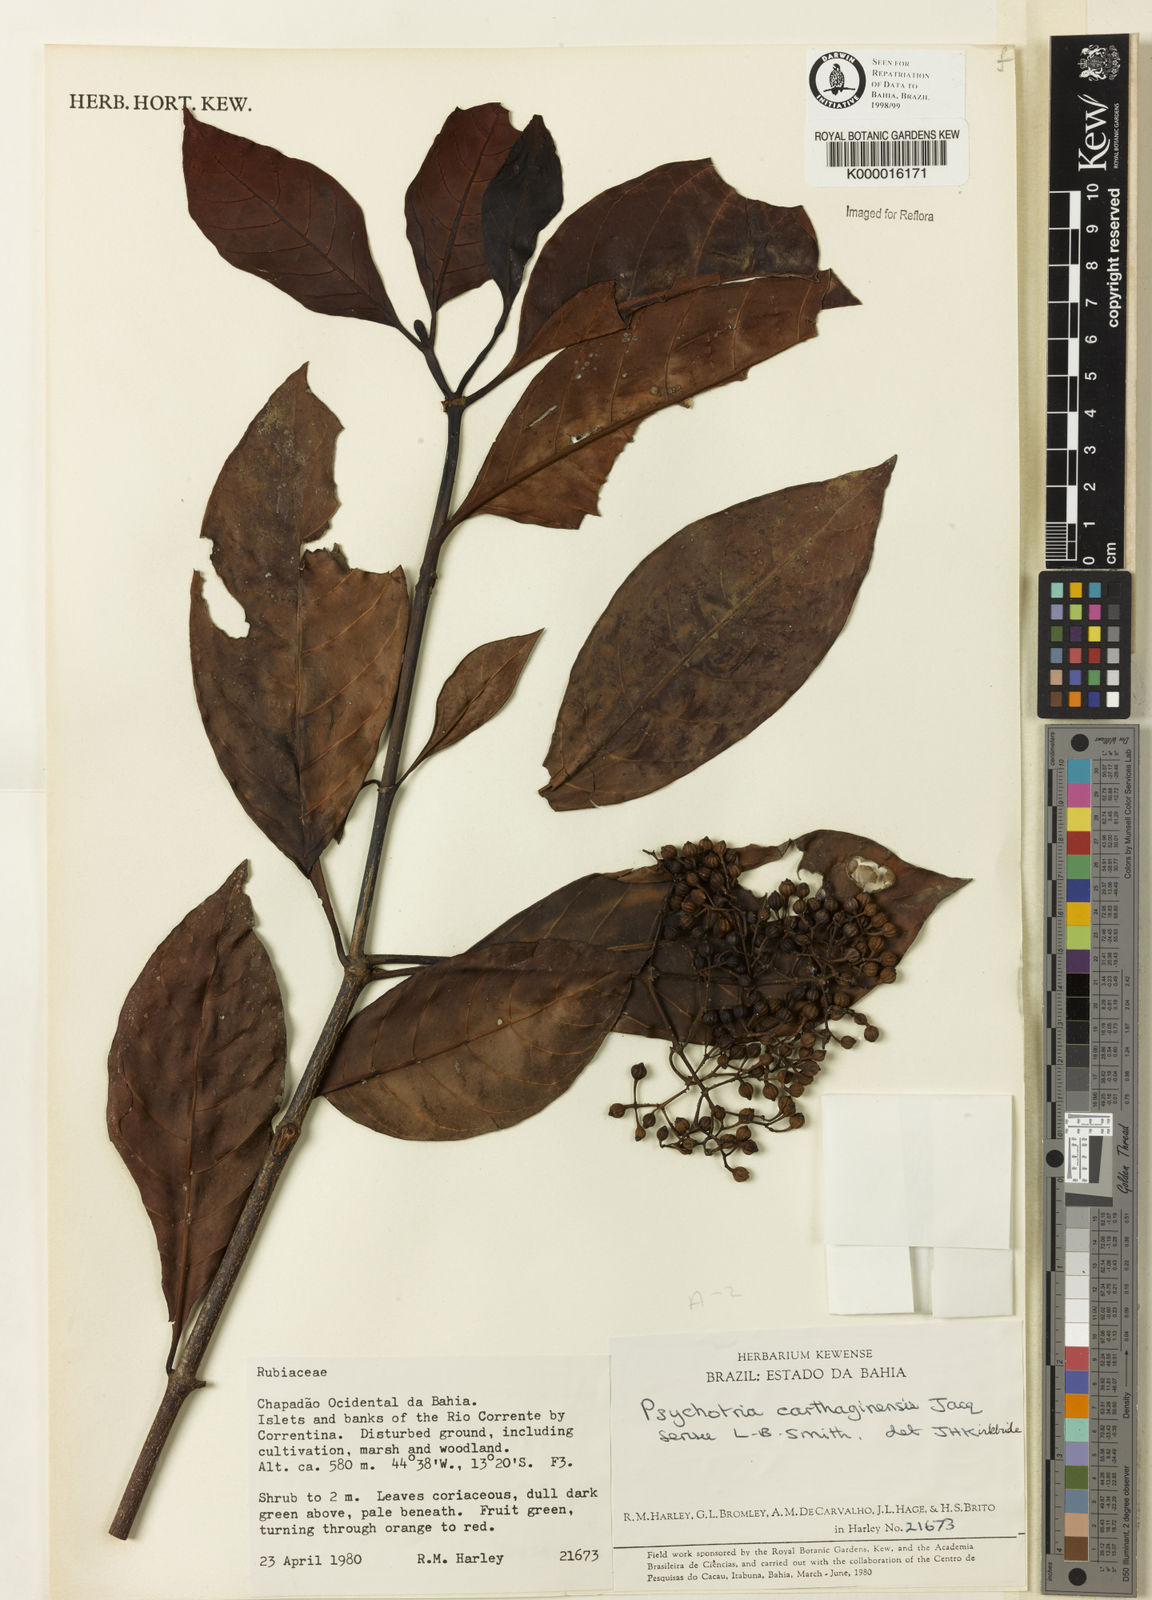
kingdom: Plantae
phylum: Tracheophyta
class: Magnoliopsida
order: Gentianales
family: Rubiaceae
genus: Psychotria
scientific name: Psychotria carthagenensis
